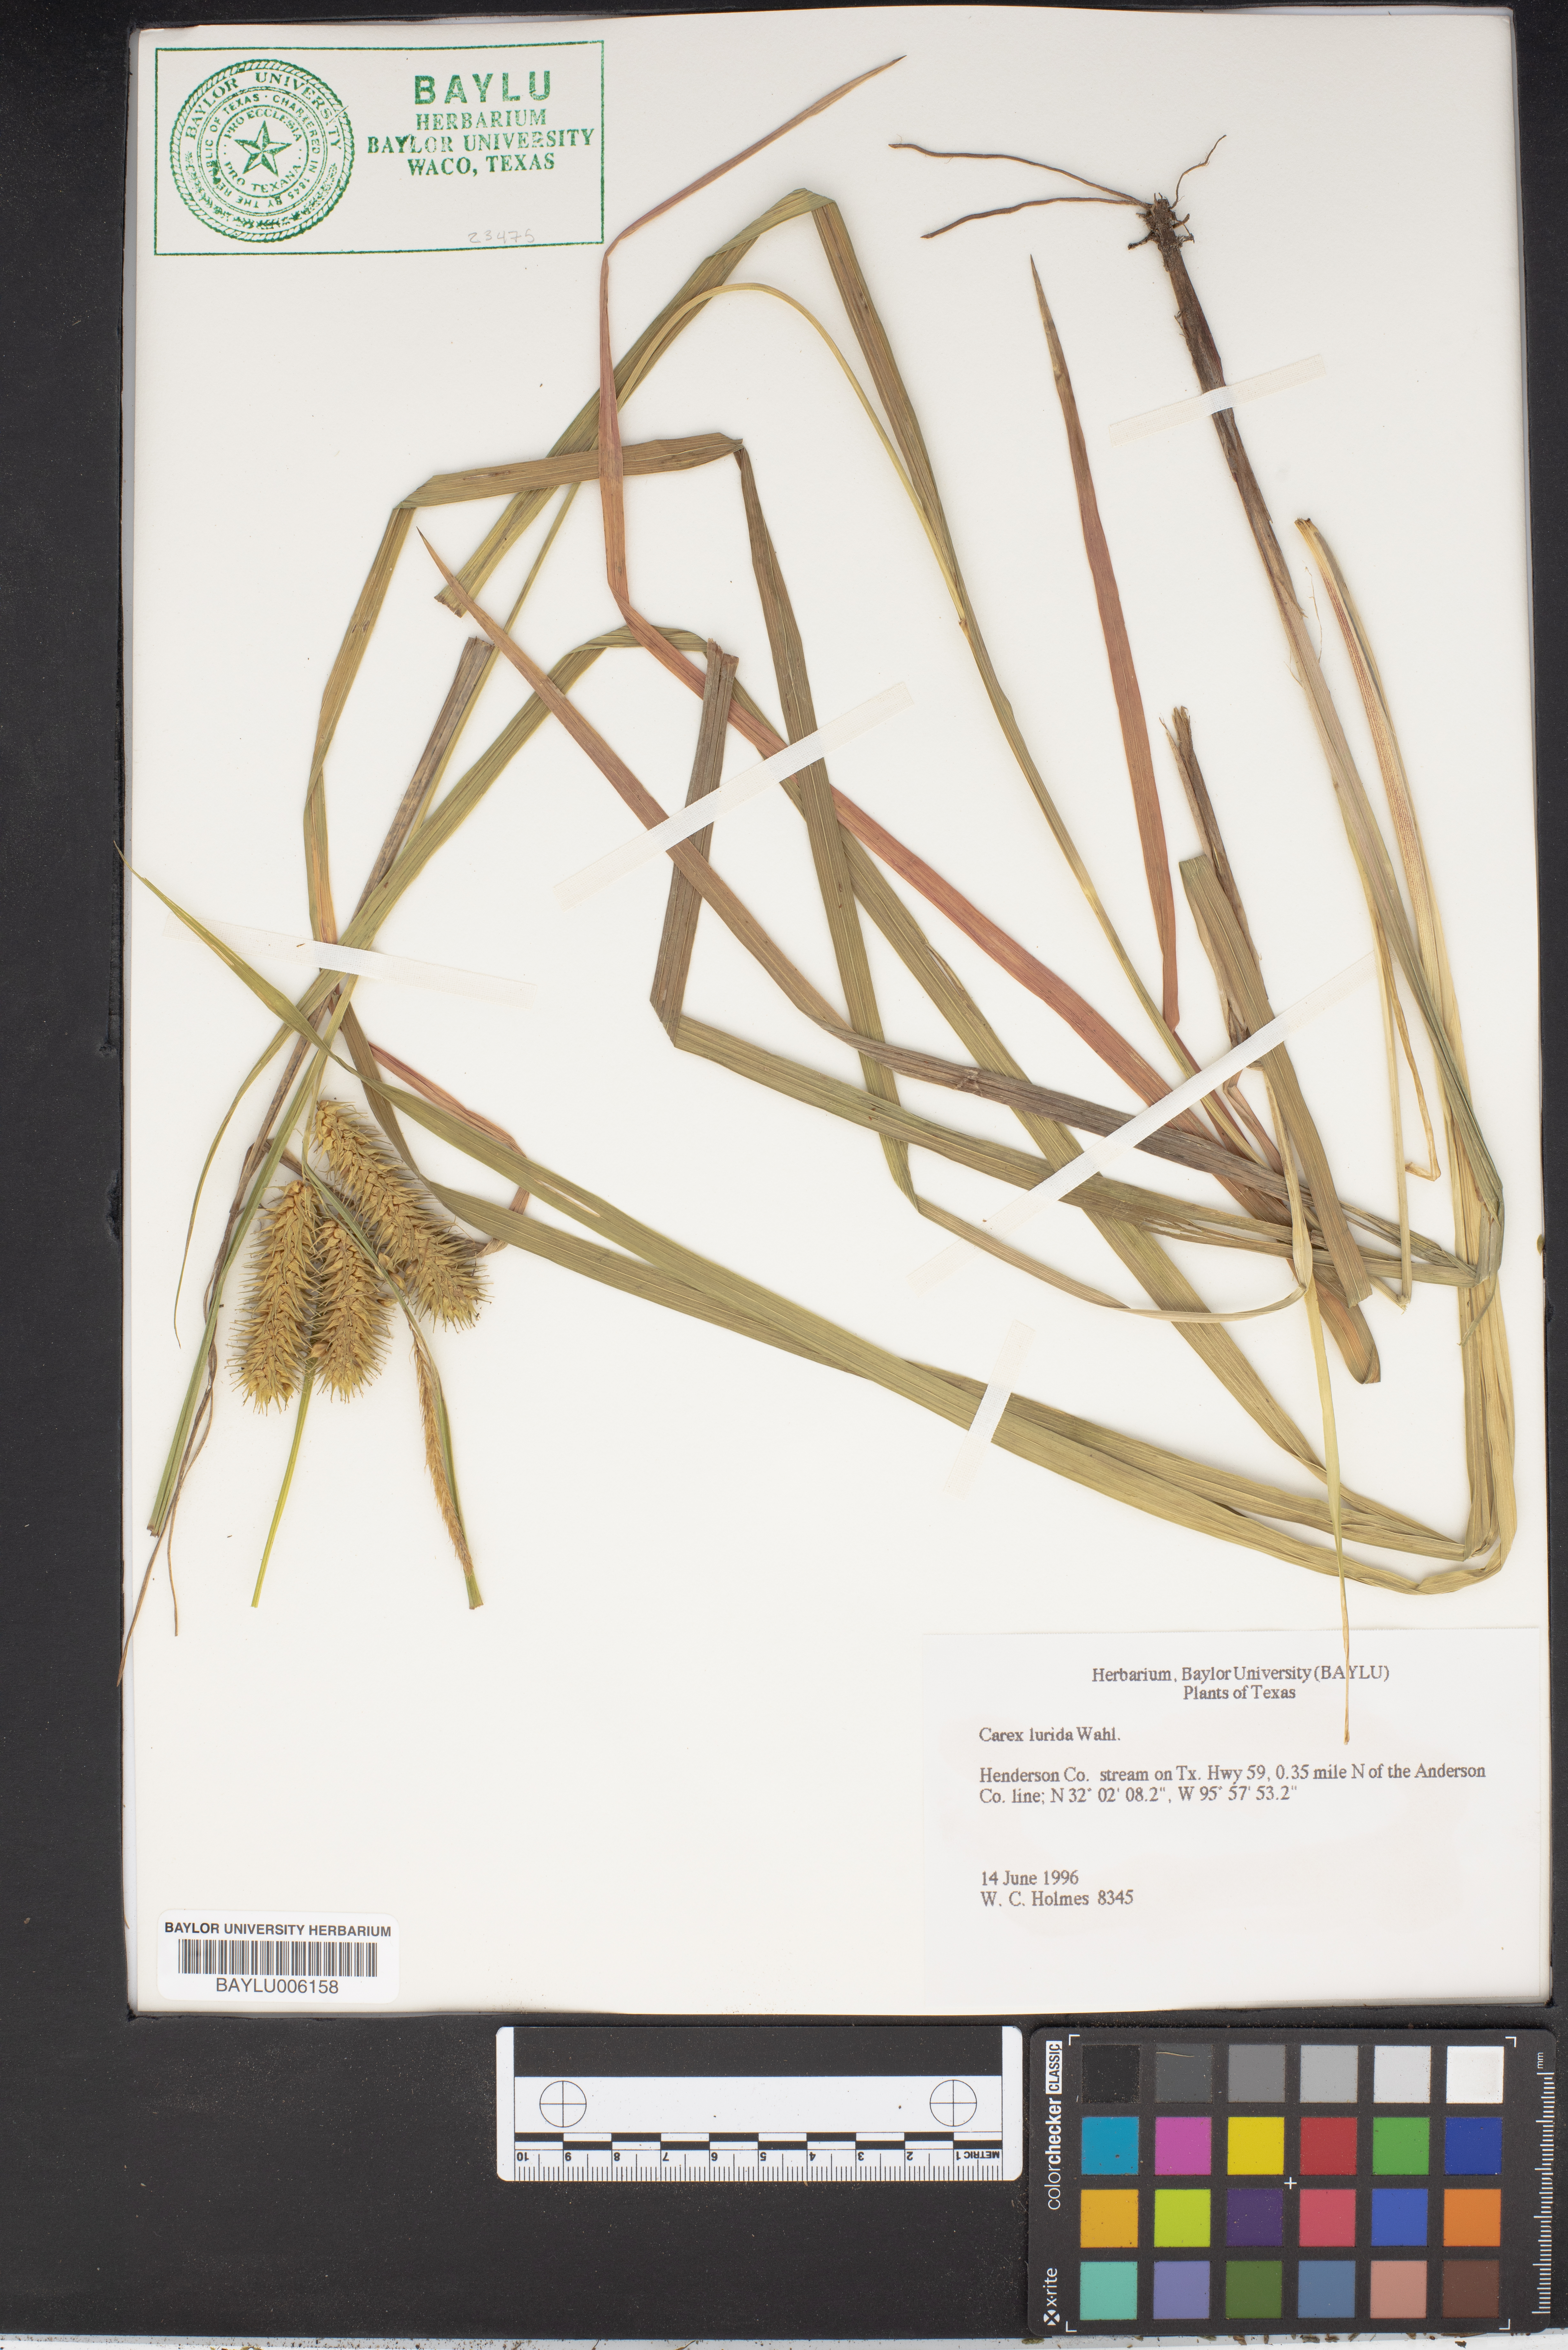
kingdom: Plantae
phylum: Tracheophyta
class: Liliopsida
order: Poales
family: Cyperaceae
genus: Carex
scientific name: Carex lurida
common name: Sallow sedge
